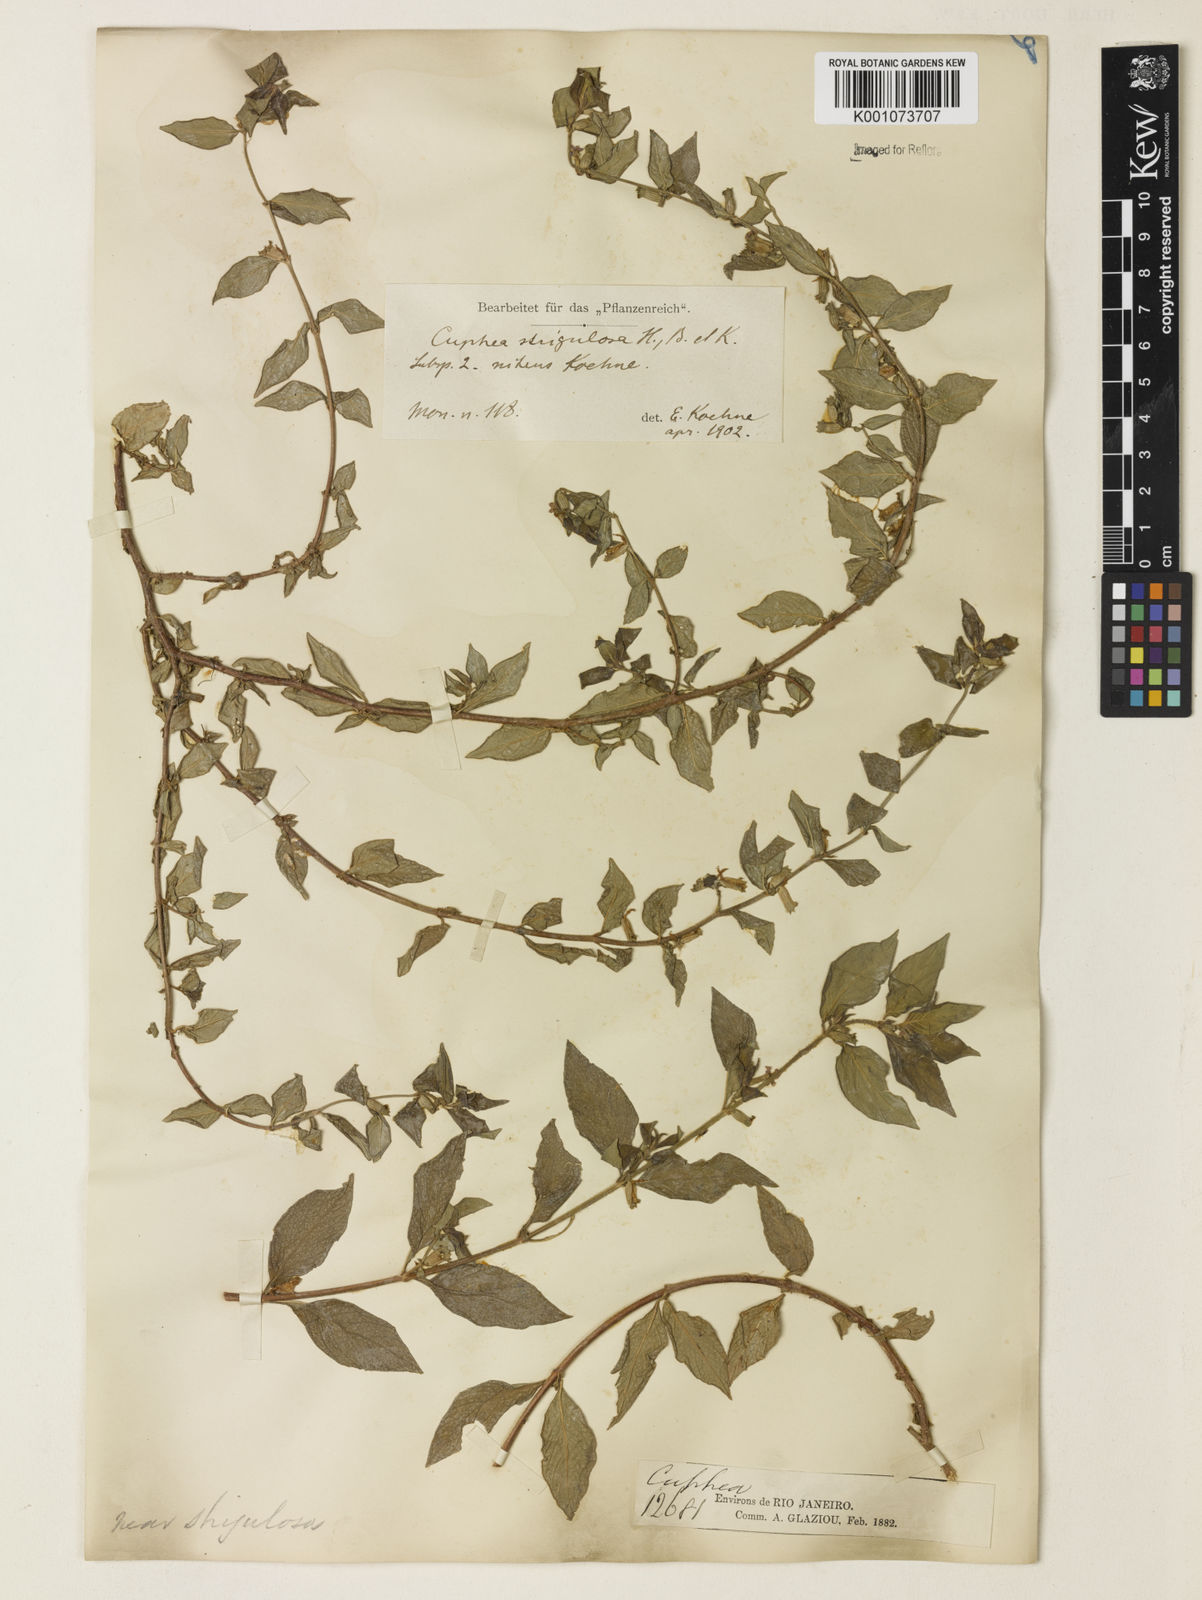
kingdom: Plantae
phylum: Tracheophyta
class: Magnoliopsida
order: Myrtales
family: Lythraceae
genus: Cuphea
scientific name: Cuphea strigulosa
